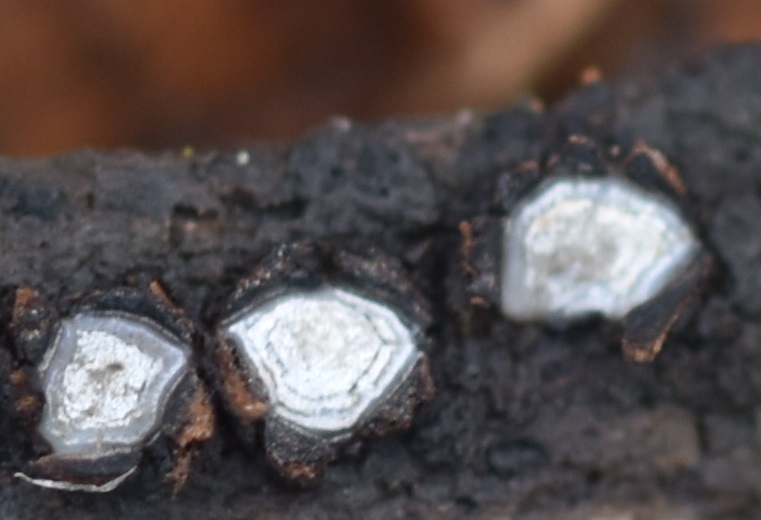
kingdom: Fungi
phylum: Ascomycota
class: Leotiomycetes
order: Chaetomellales
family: Marthamycetaceae
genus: Propolis
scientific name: Propolis farinosa
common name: almindelig vedsprængerskive
